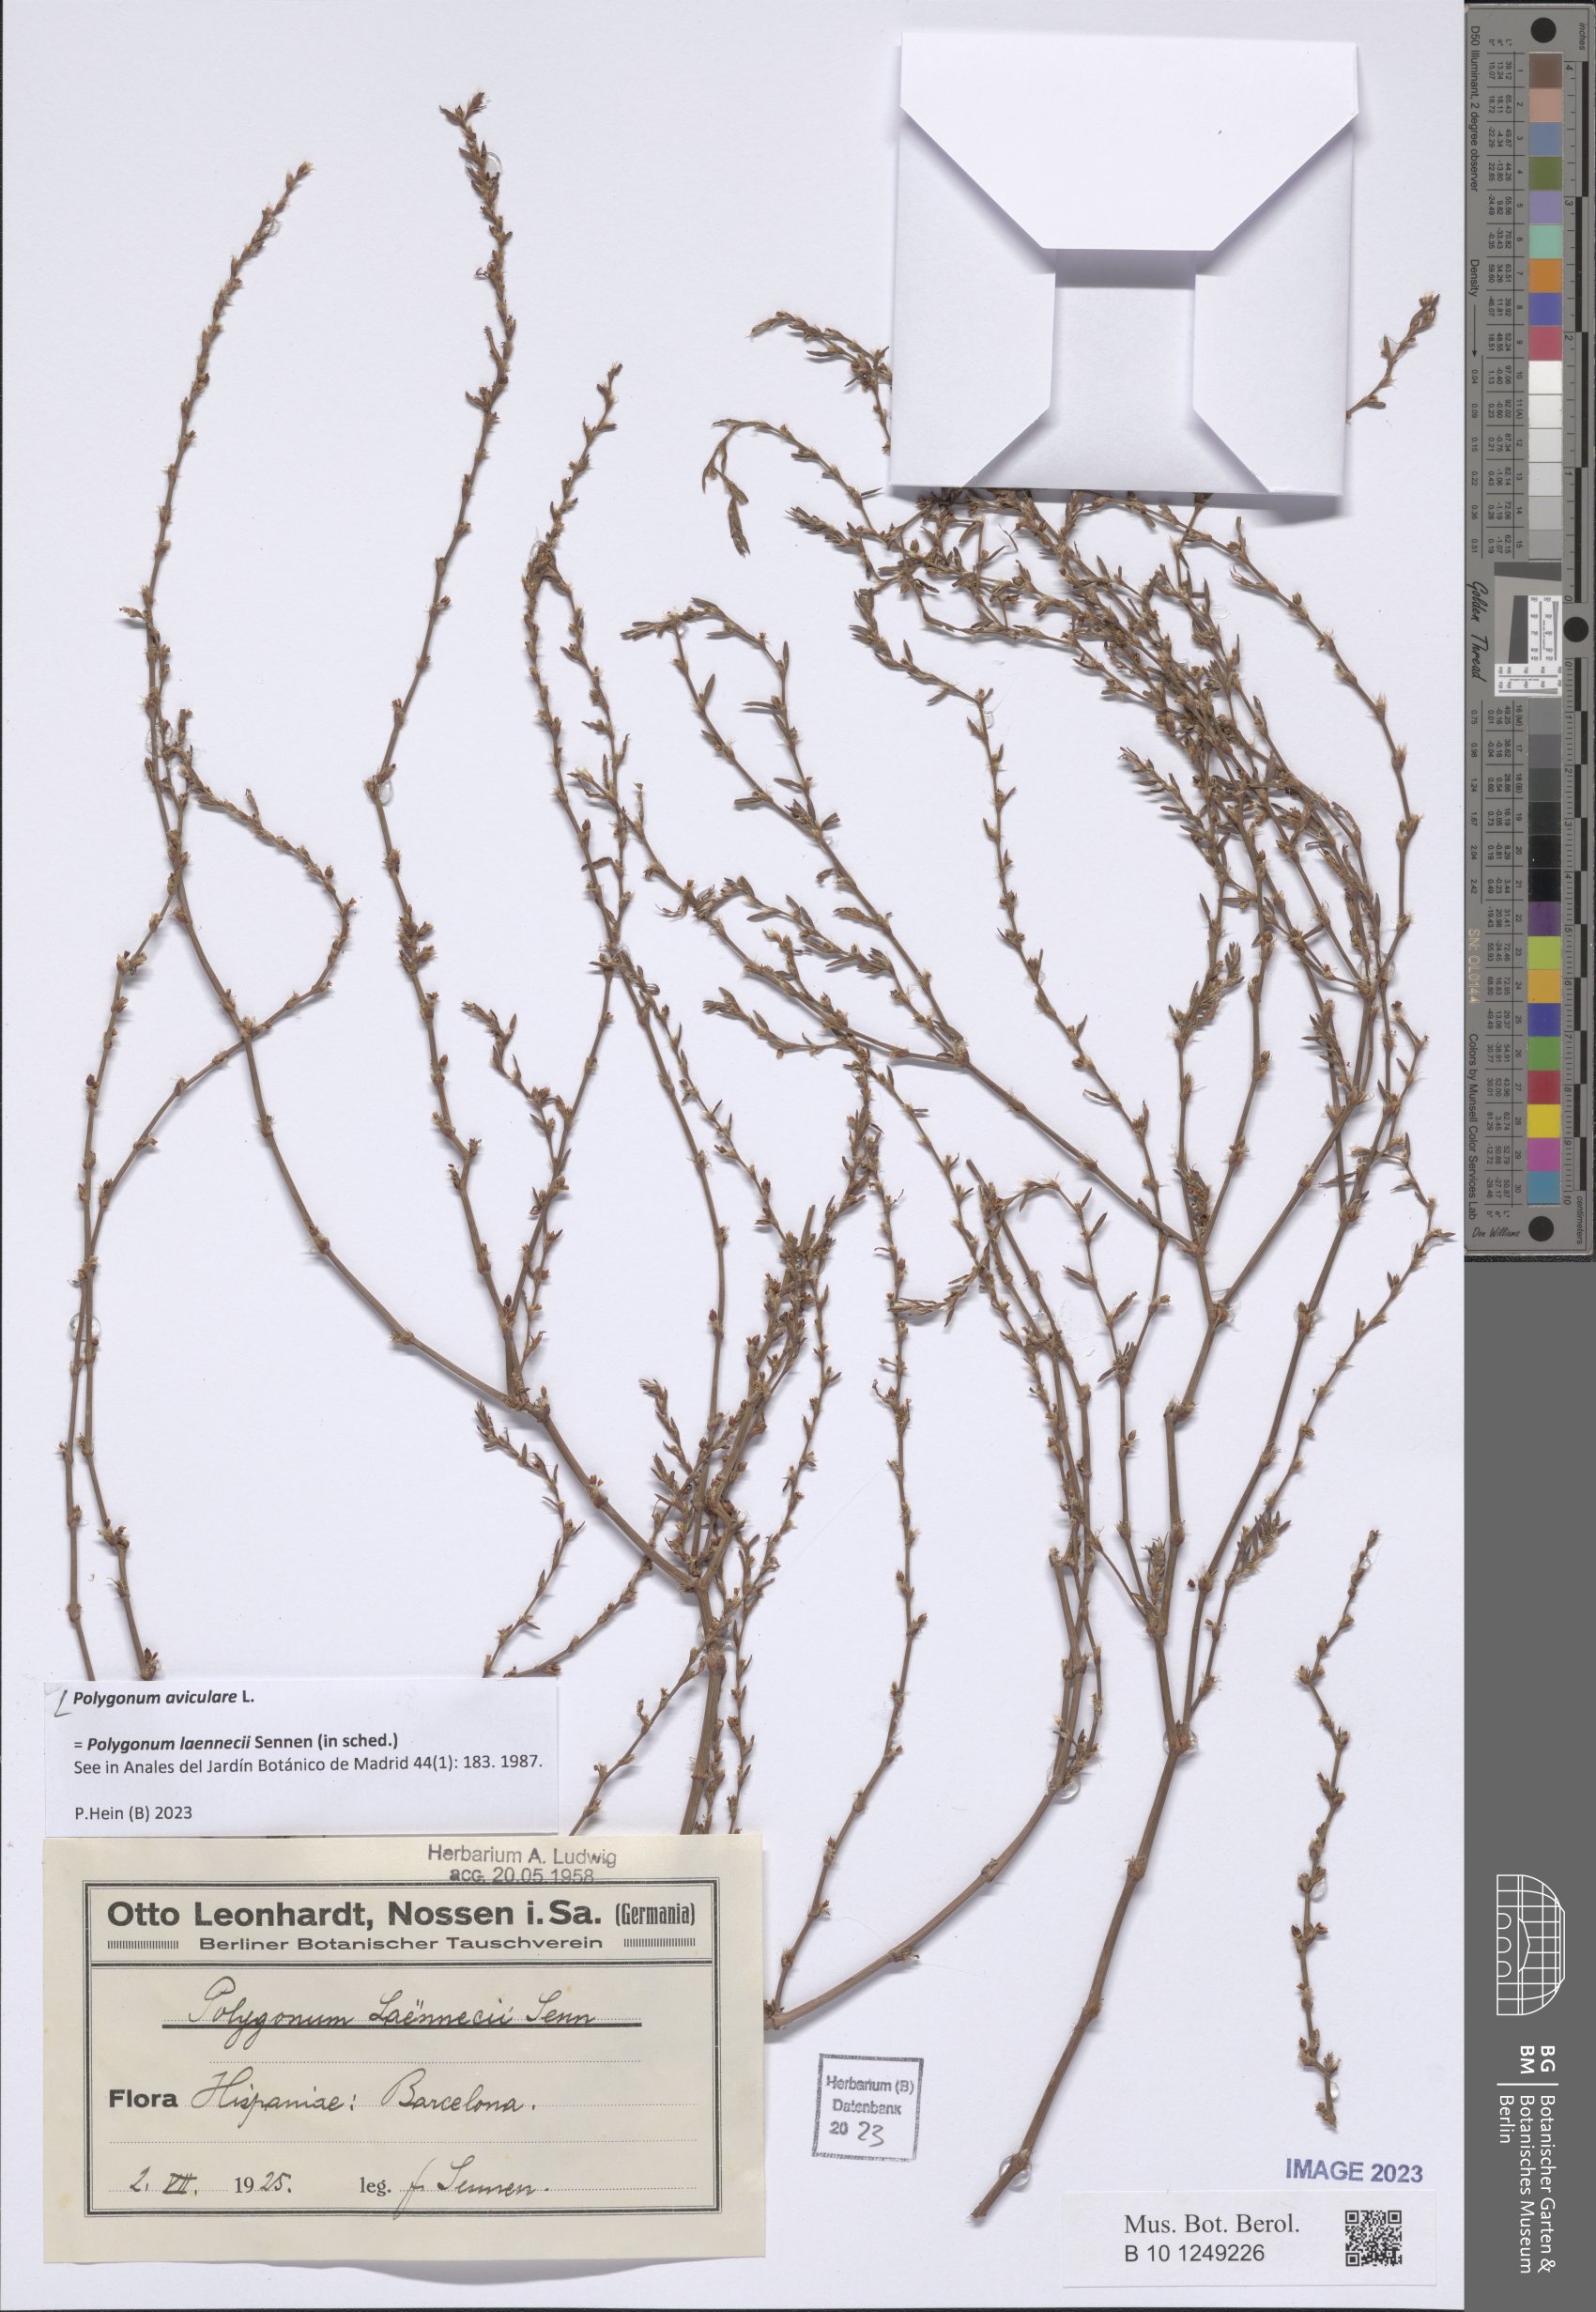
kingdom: Plantae
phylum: Tracheophyta
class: Magnoliopsida
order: Caryophyllales
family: Polygonaceae
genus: Polygonum
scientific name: Polygonum aviculare
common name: Prostrate knotweed
